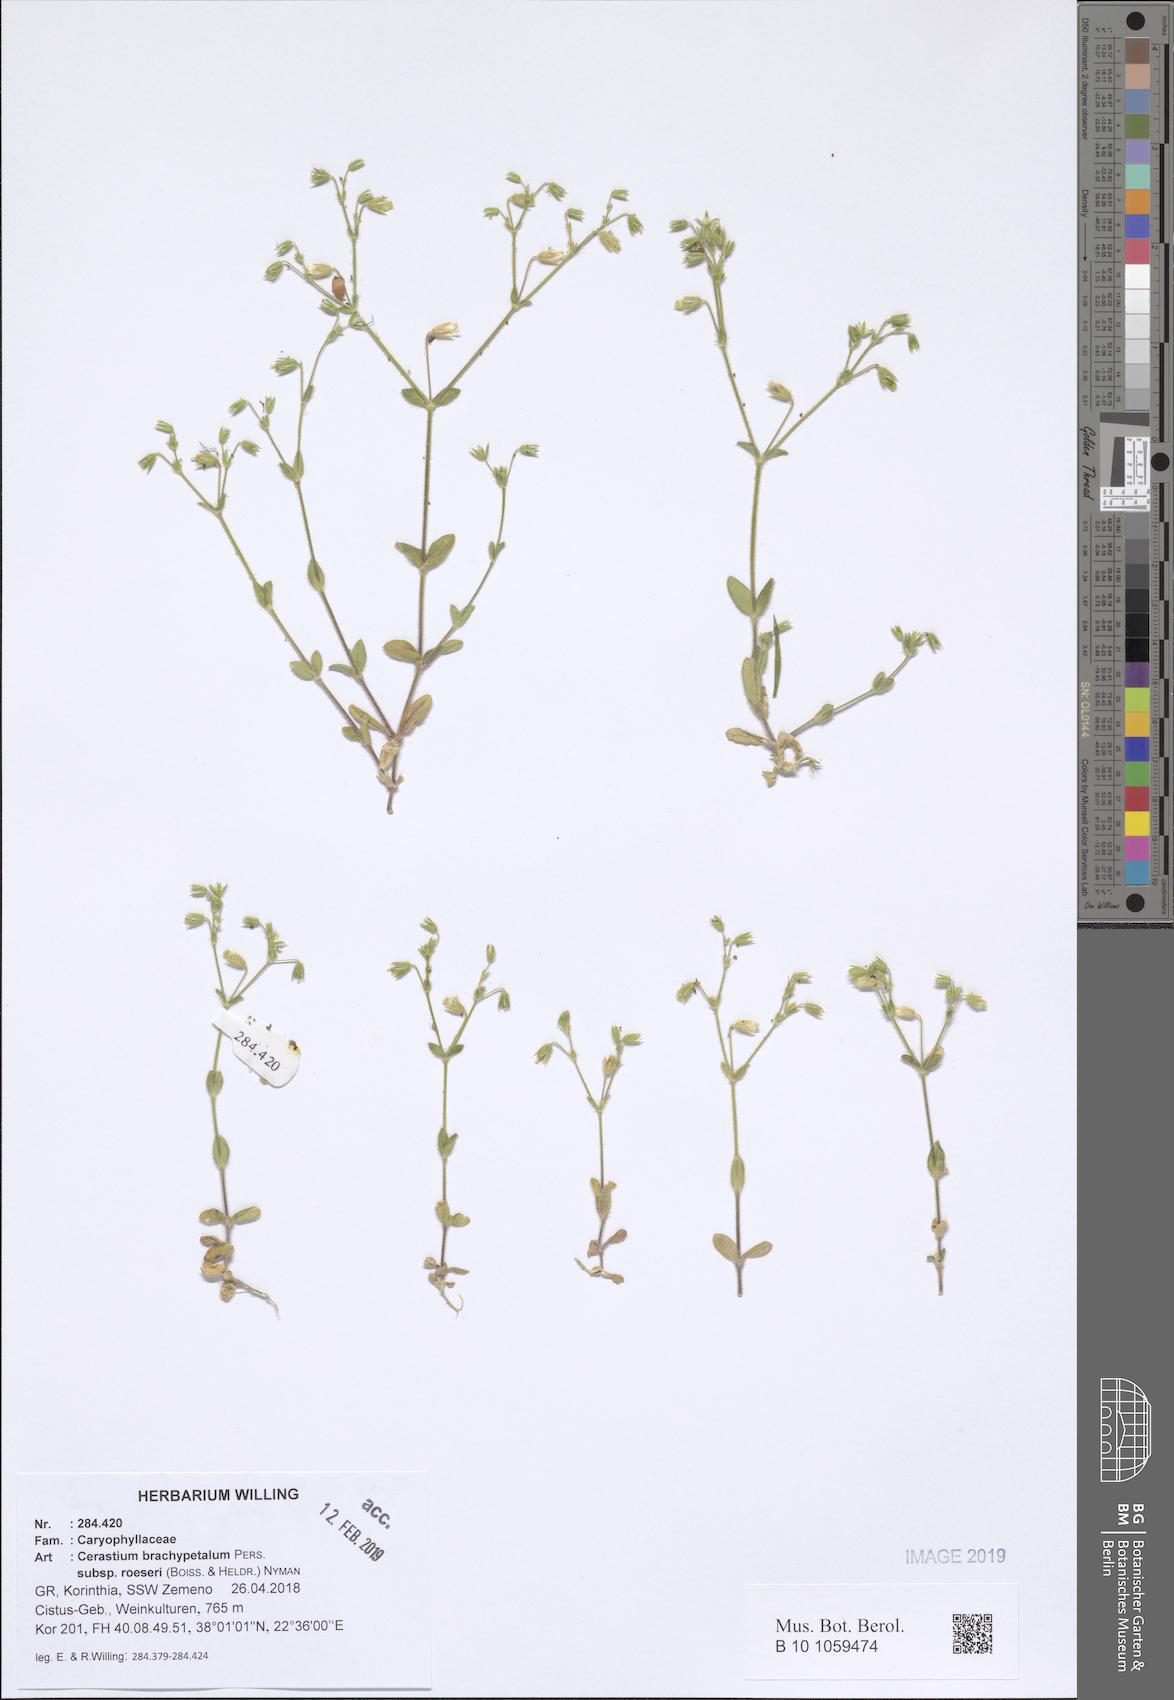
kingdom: Plantae
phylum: Tracheophyta
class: Magnoliopsida
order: Caryophyllales
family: Caryophyllaceae
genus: Cerastium
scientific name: Cerastium brachypetalum
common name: Grey mouse-ear
